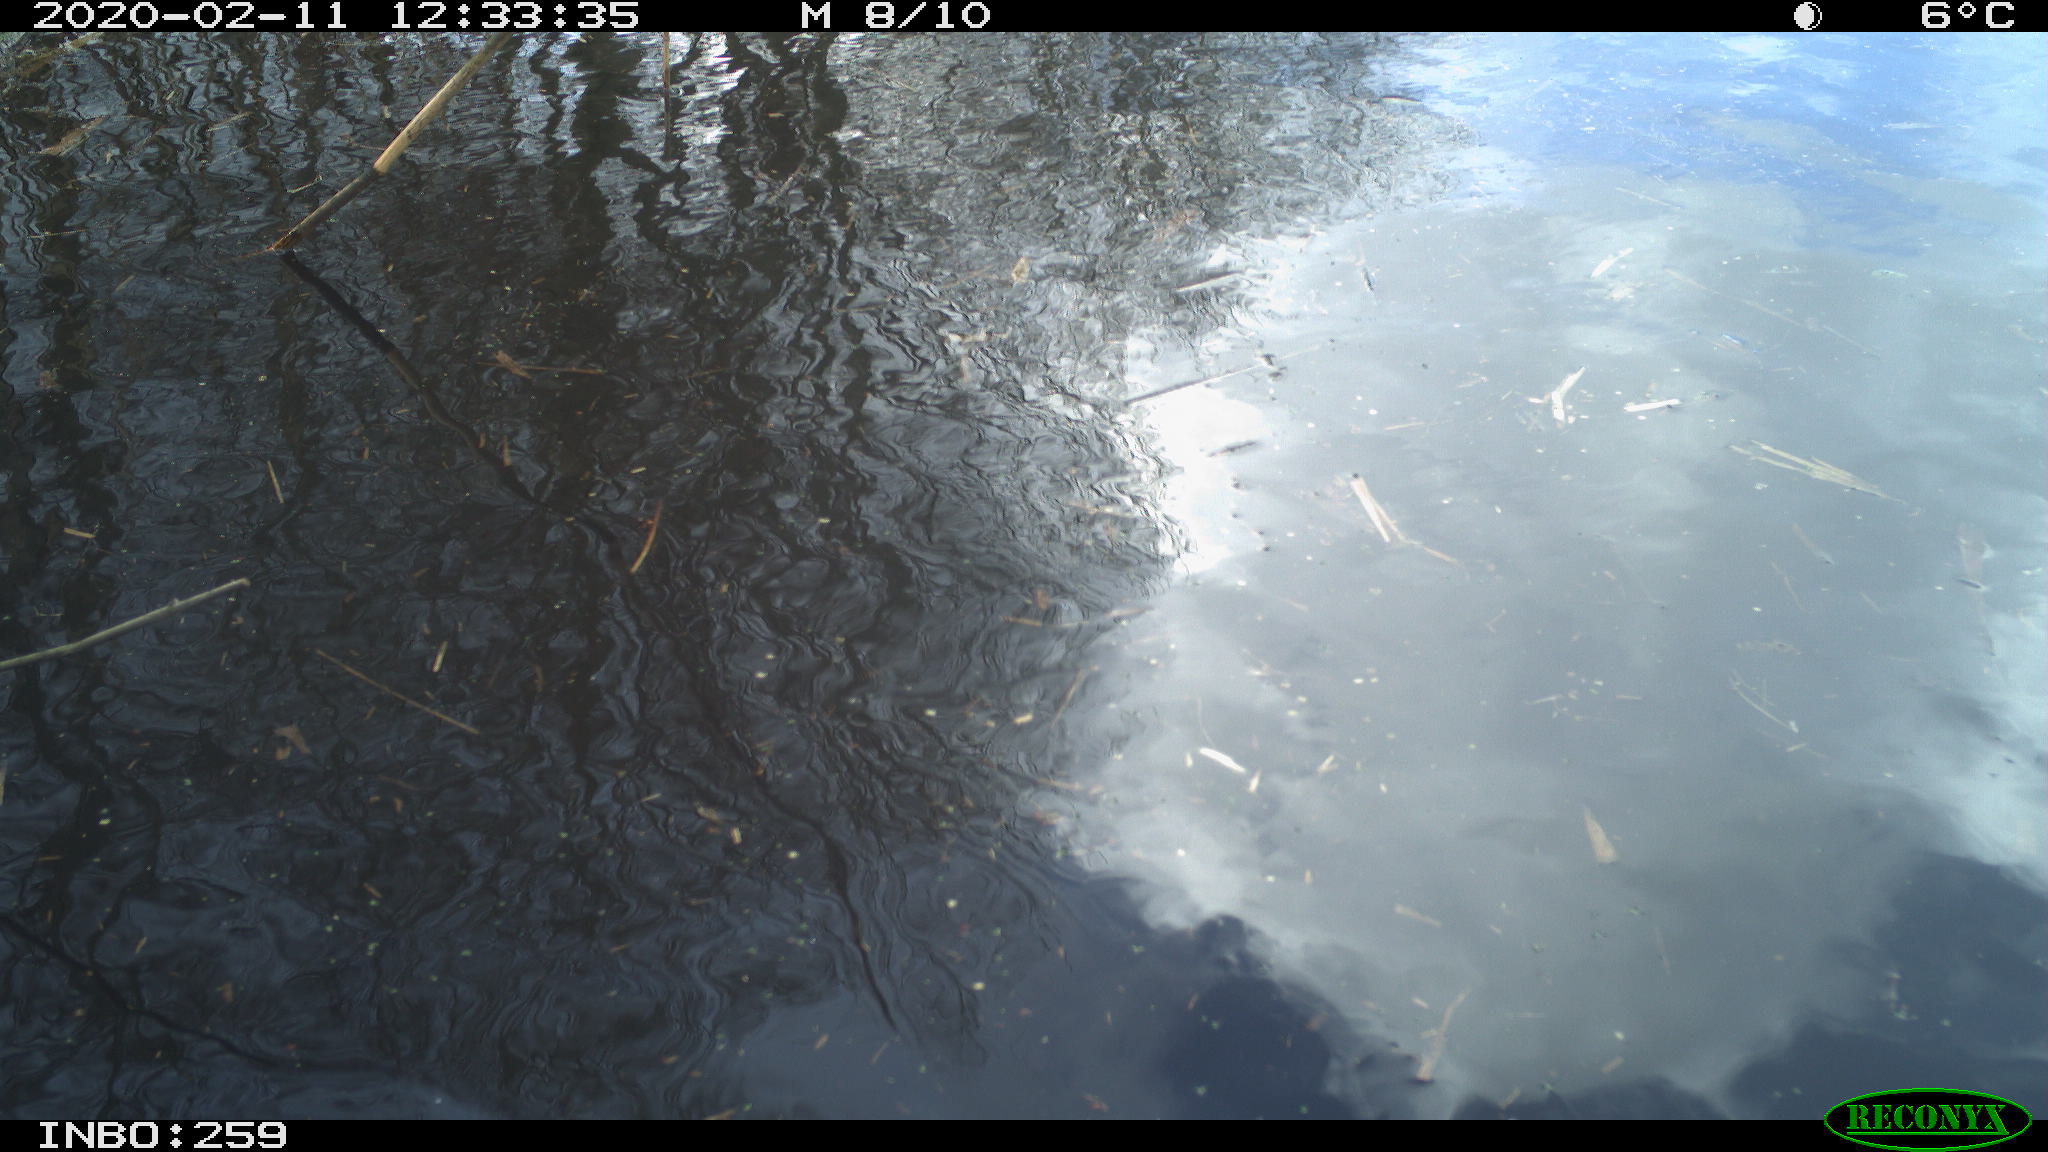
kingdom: Animalia
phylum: Chordata
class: Aves
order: Gruiformes
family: Rallidae
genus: Gallinula
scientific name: Gallinula chloropus
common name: Common moorhen
